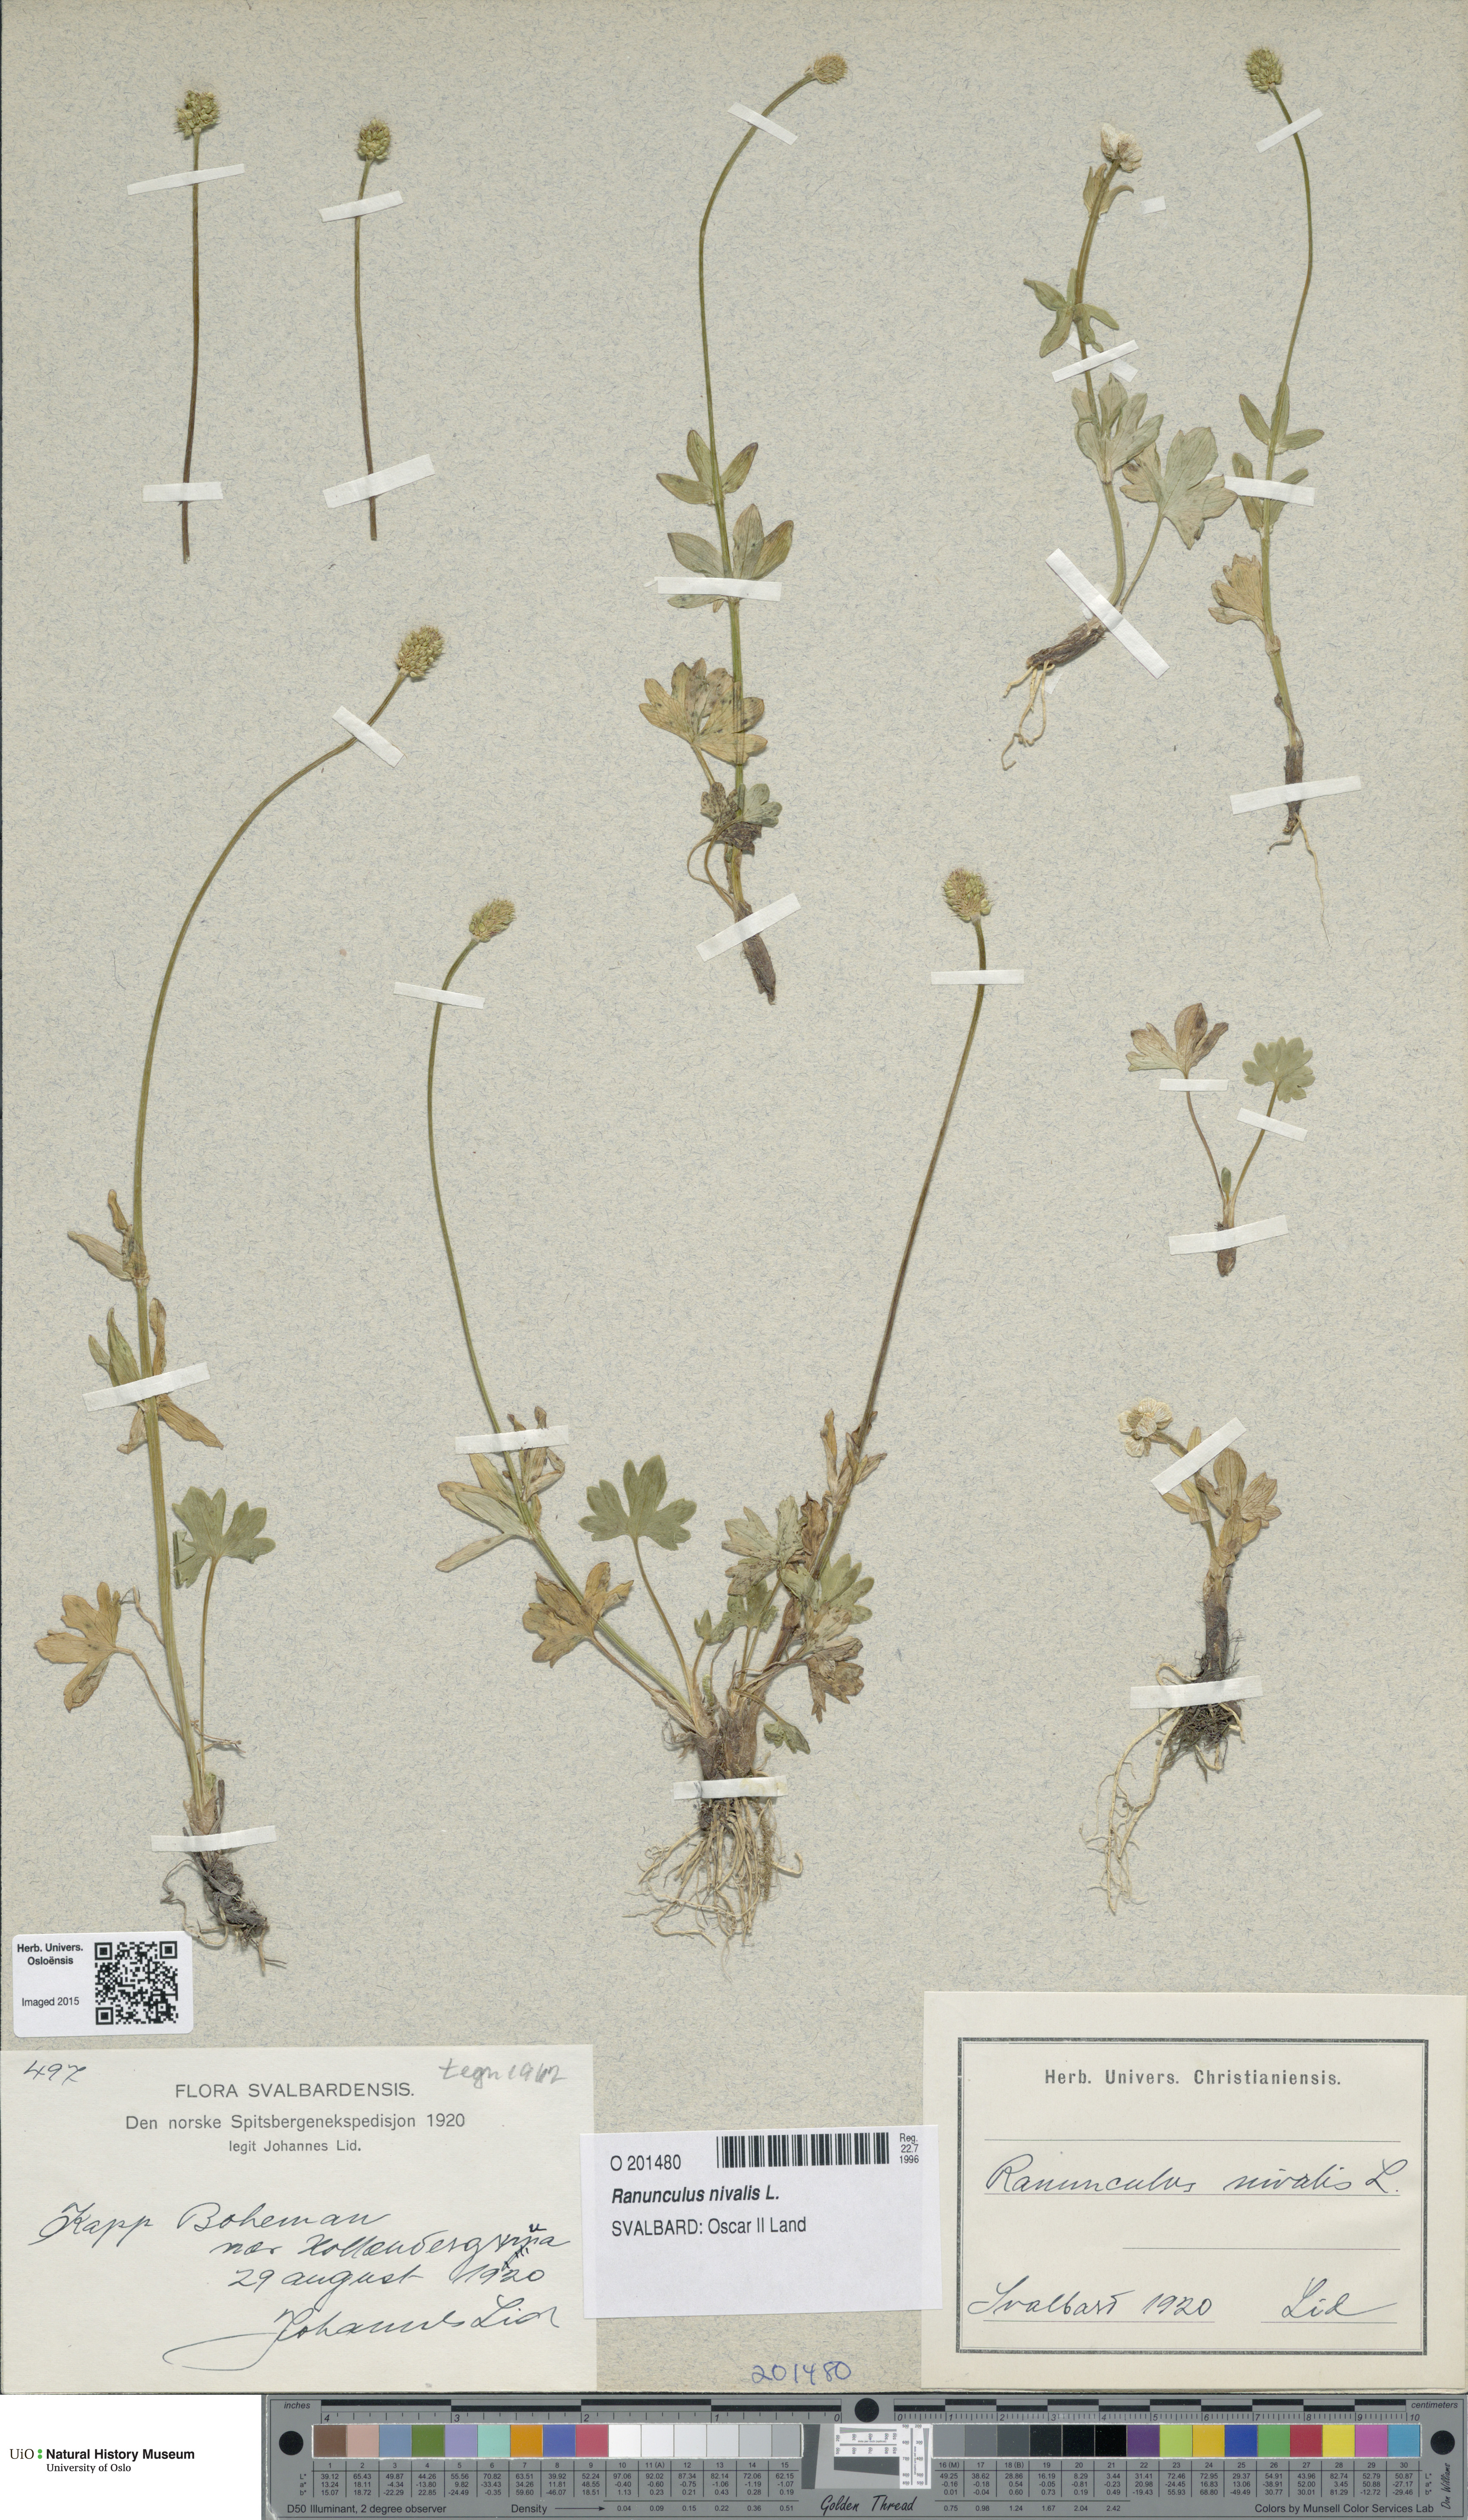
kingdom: Plantae
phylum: Tracheophyta
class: Magnoliopsida
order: Ranunculales
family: Ranunculaceae
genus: Ranunculus
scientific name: Ranunculus nivalis
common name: Snow buttercup
